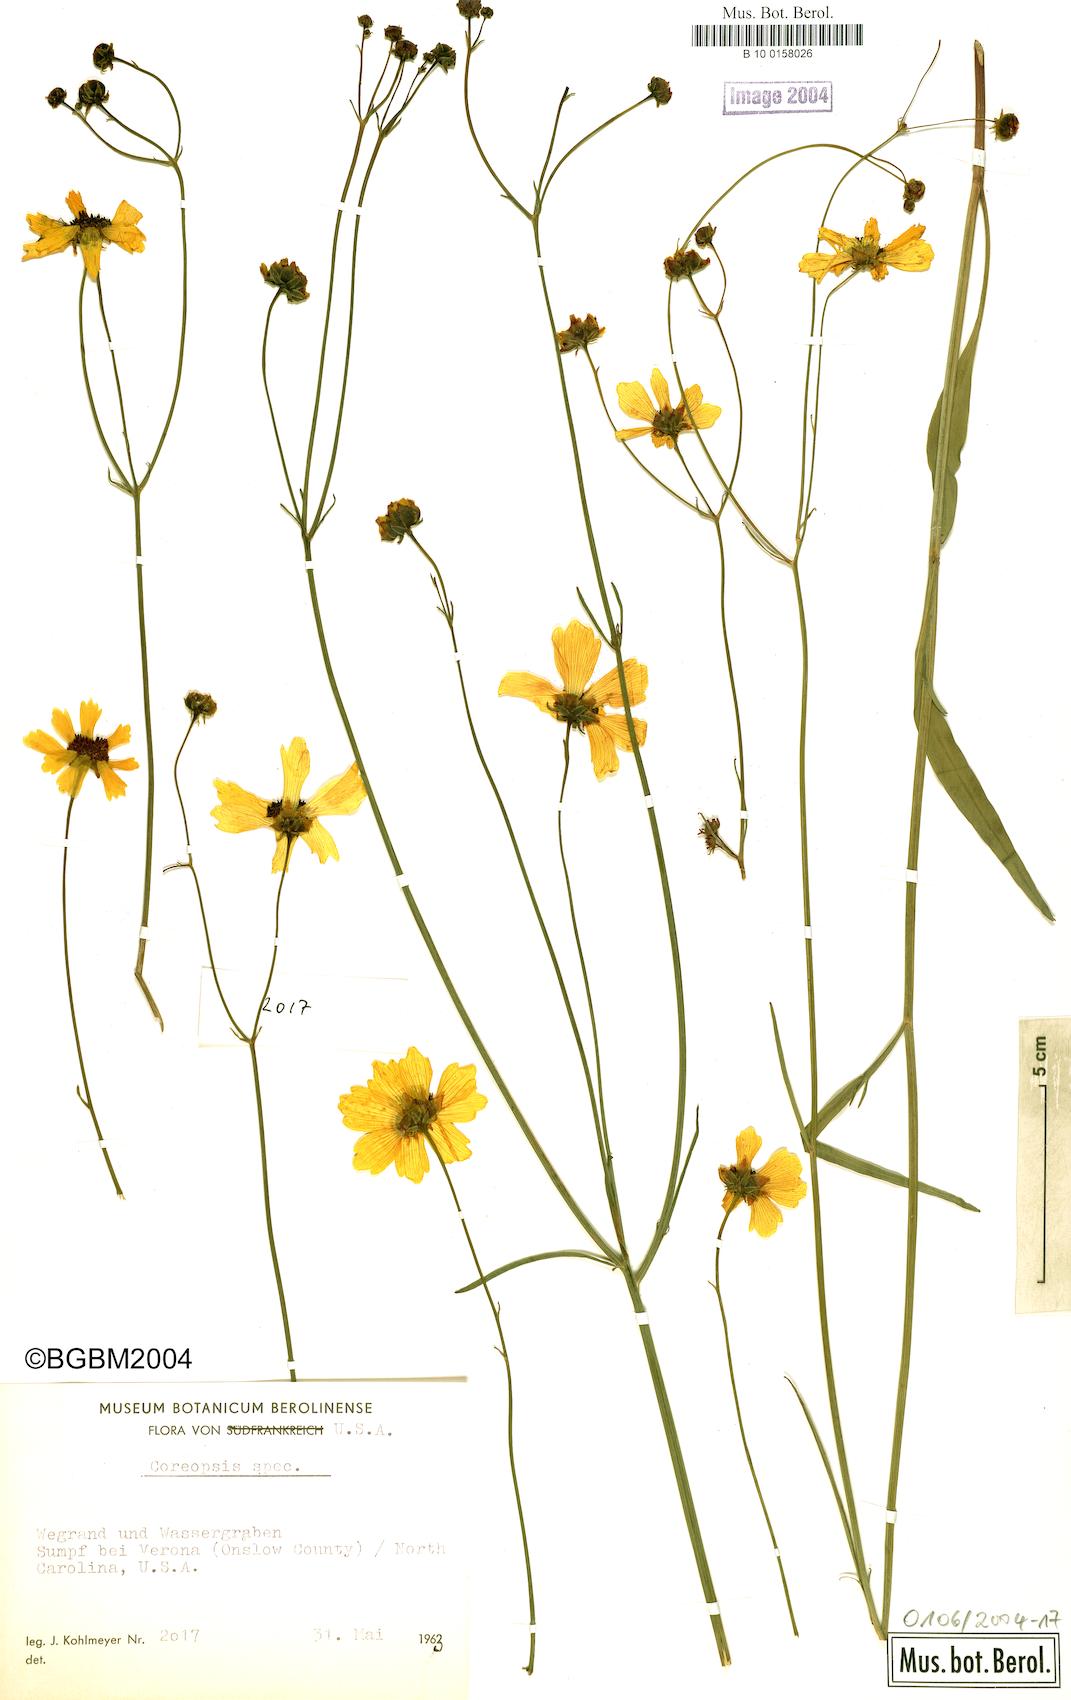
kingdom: Plantae
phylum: Tracheophyta
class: Magnoliopsida
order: Asterales
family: Asteraceae
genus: Coreopsis
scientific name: Coreopsis
